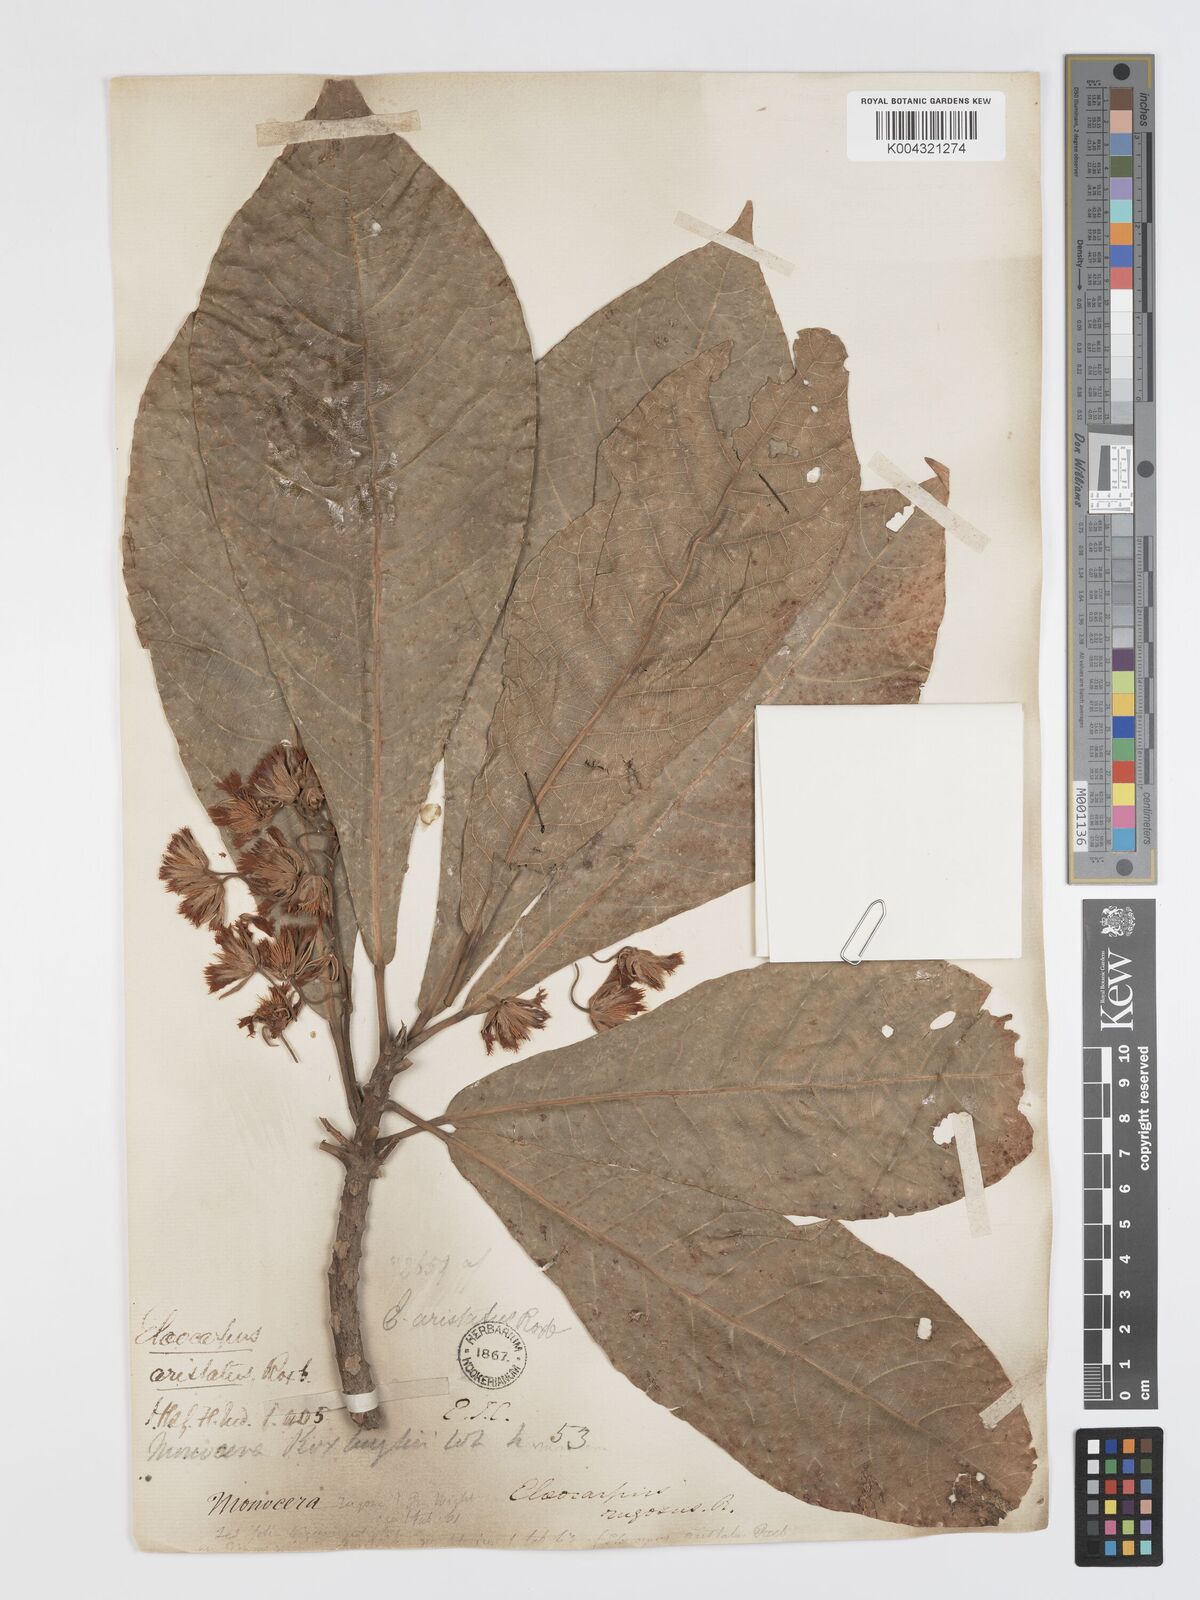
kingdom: Plantae
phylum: Tracheophyta
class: Magnoliopsida
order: Oxalidales
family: Elaeocarpaceae
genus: Elaeocarpus
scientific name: Elaeocarpus aristatus
